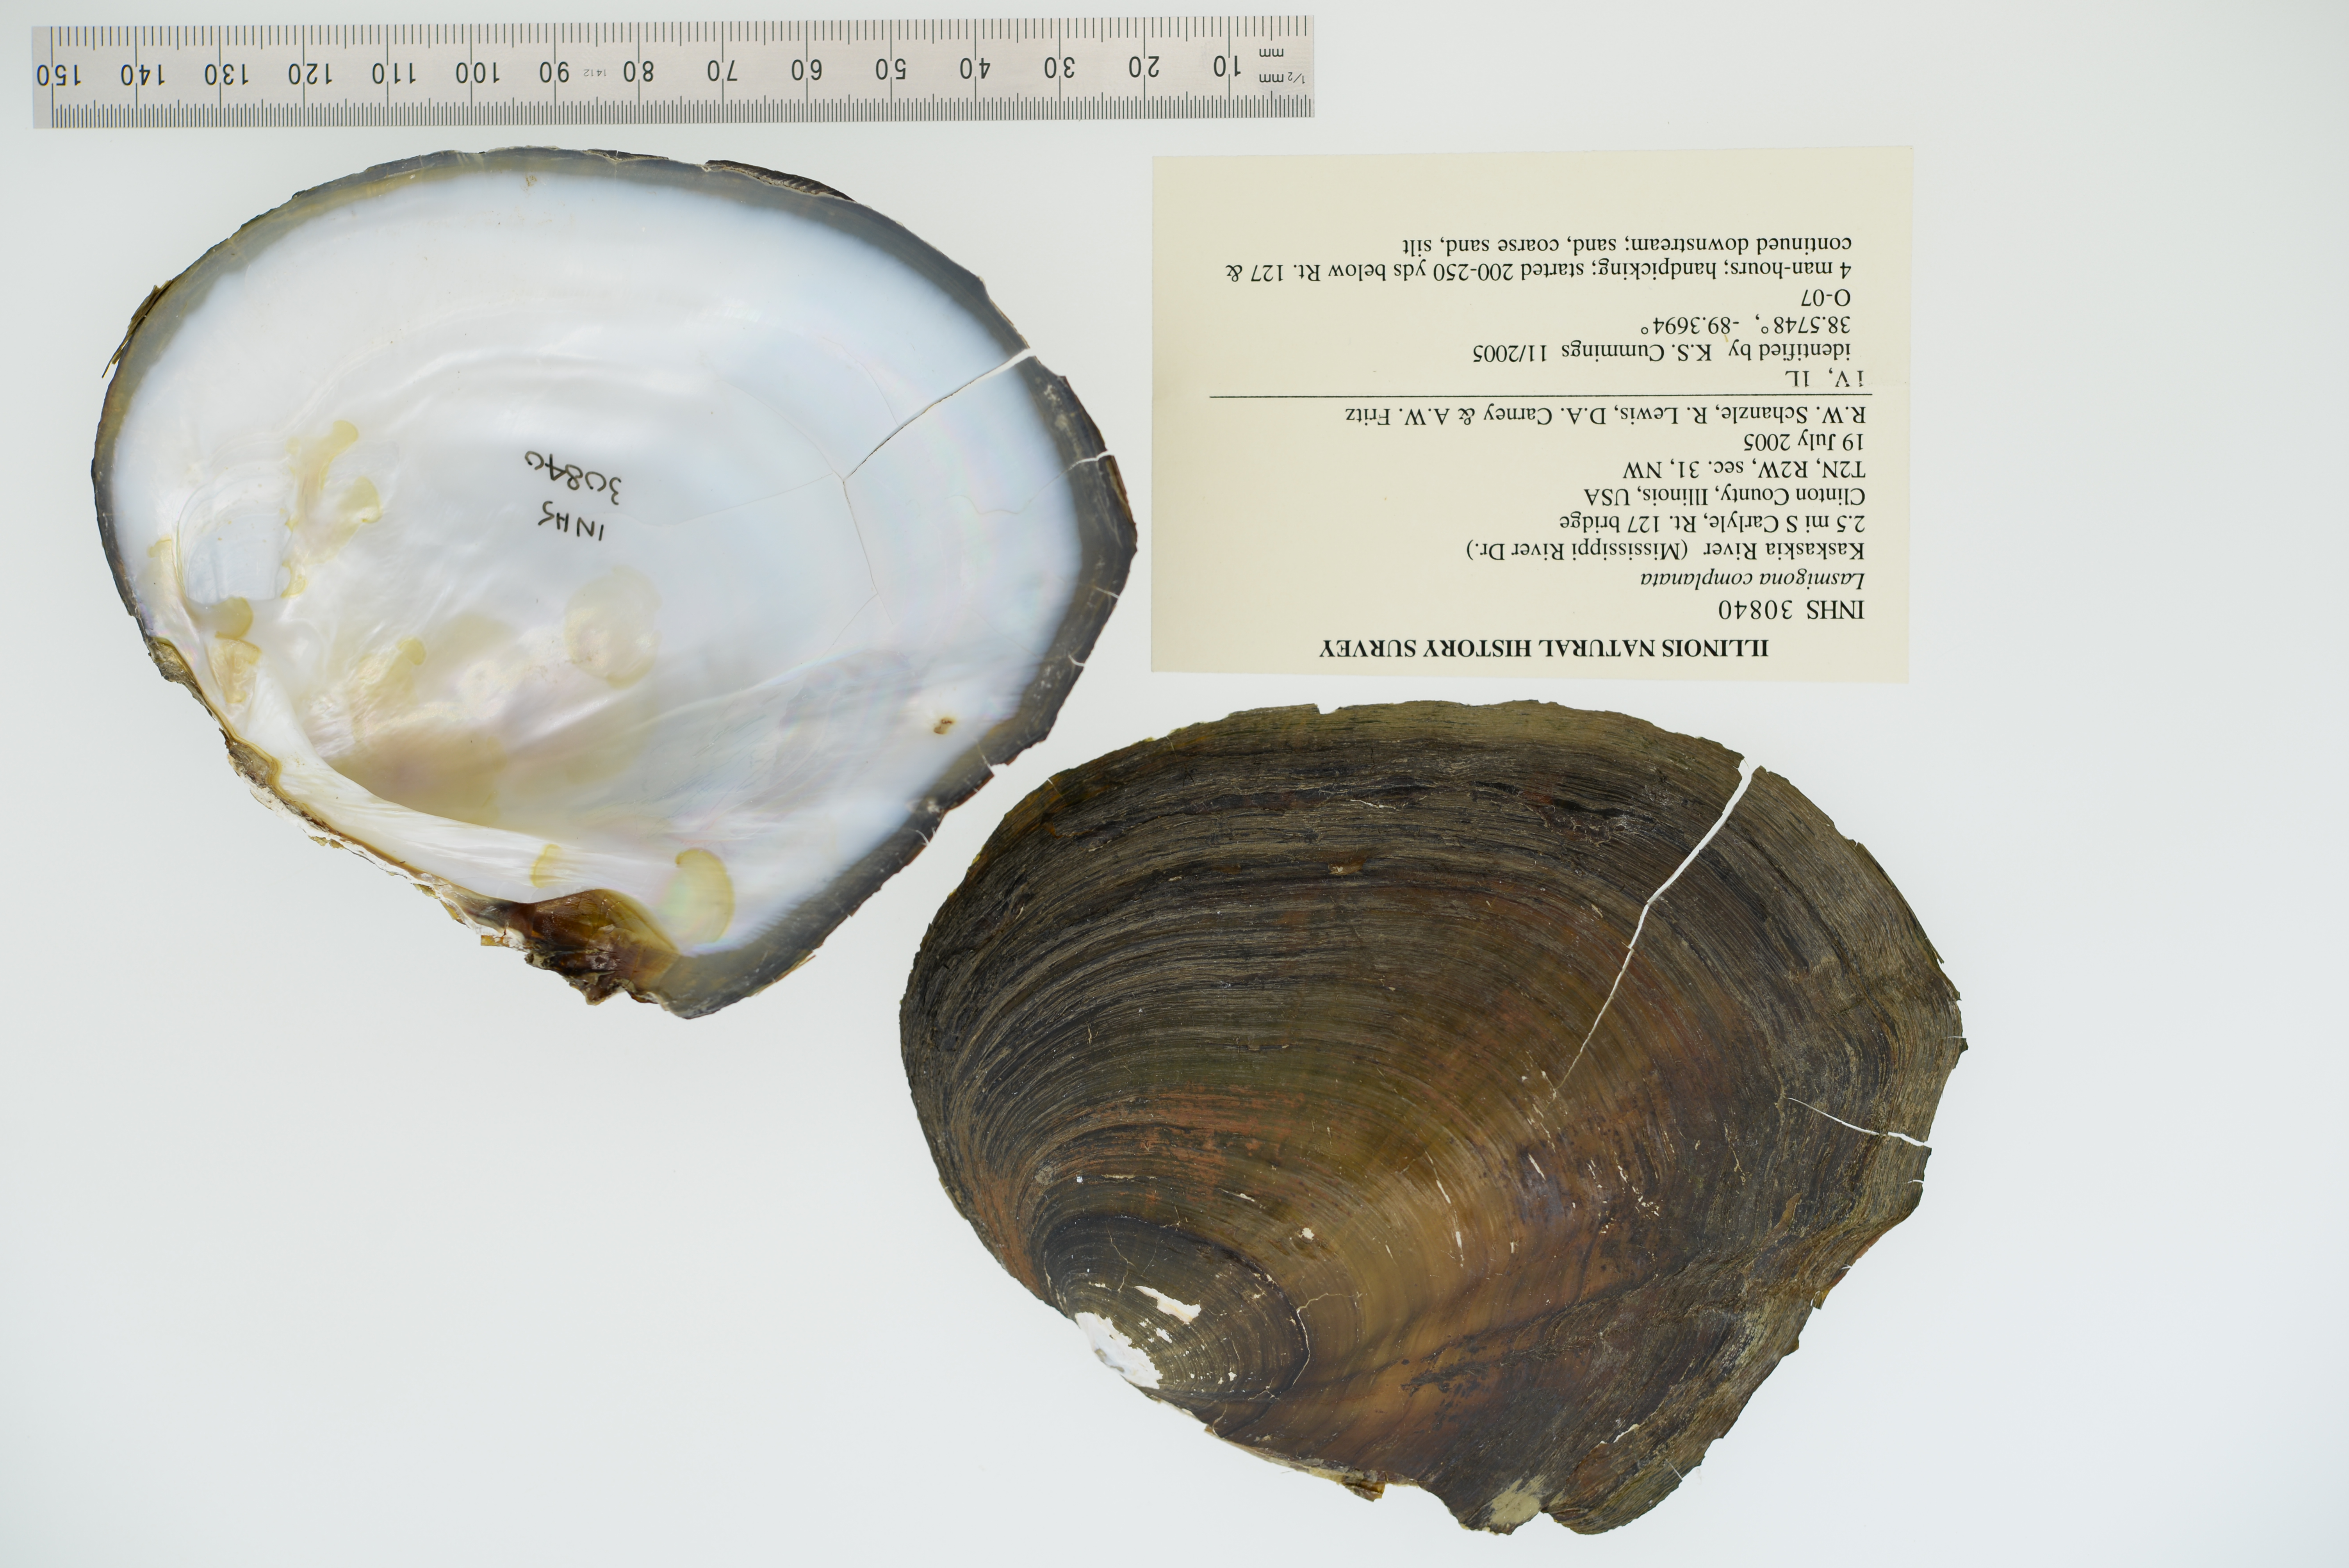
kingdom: Animalia
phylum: Mollusca
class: Bivalvia
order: Unionida
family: Unionidae
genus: Lasmigona
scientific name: Lasmigona complanata
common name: White heelsplitter
